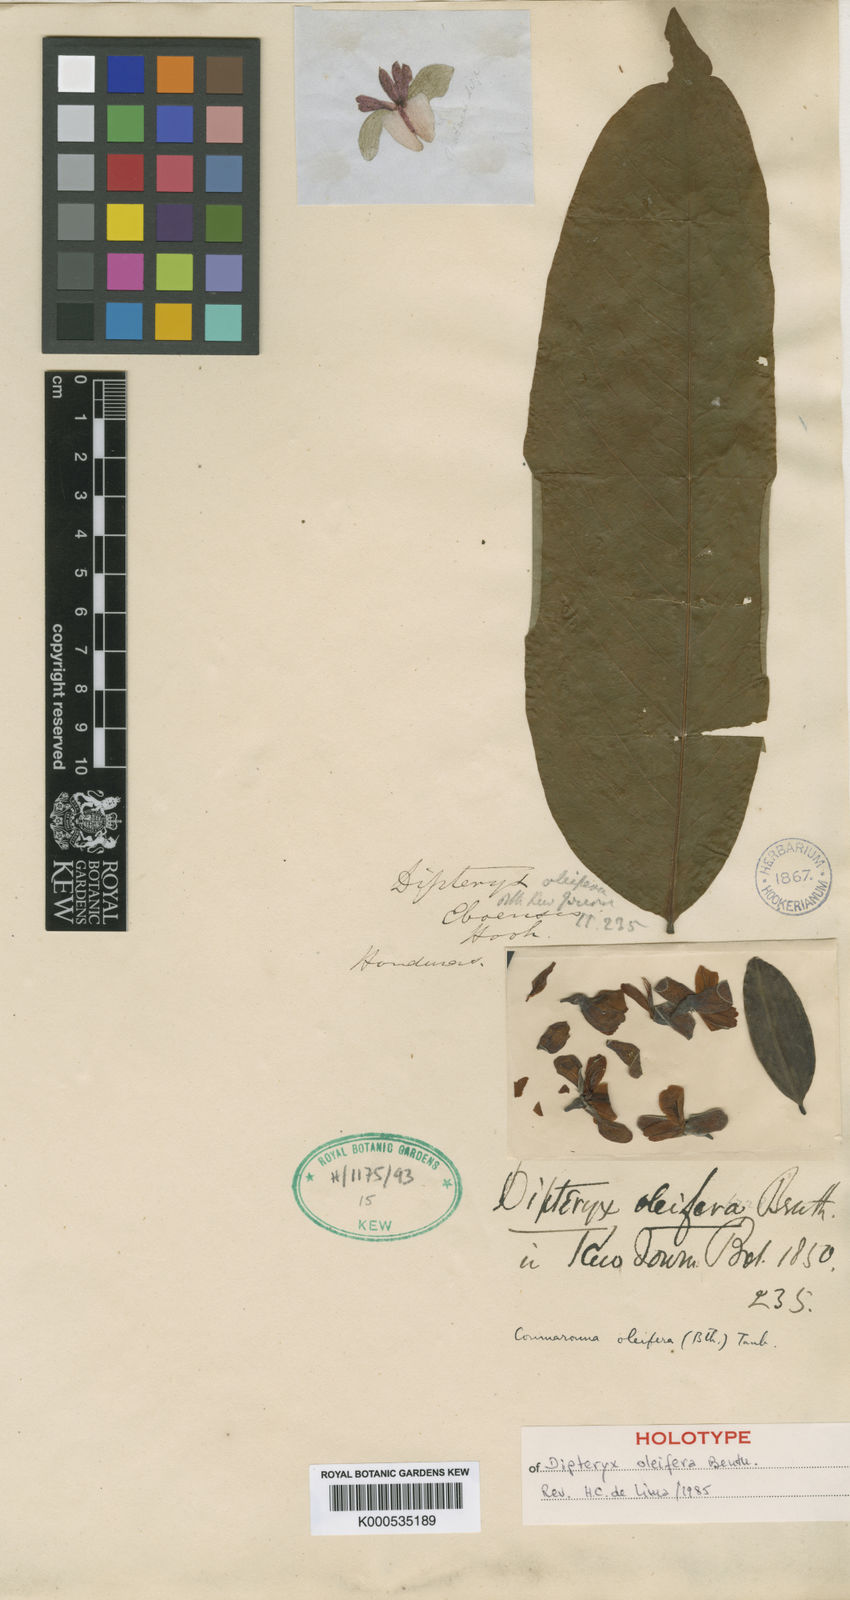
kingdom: Plantae
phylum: Tracheophyta
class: Magnoliopsida
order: Fabales
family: Fabaceae
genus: Dipteryx
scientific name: Dipteryx oleifera
